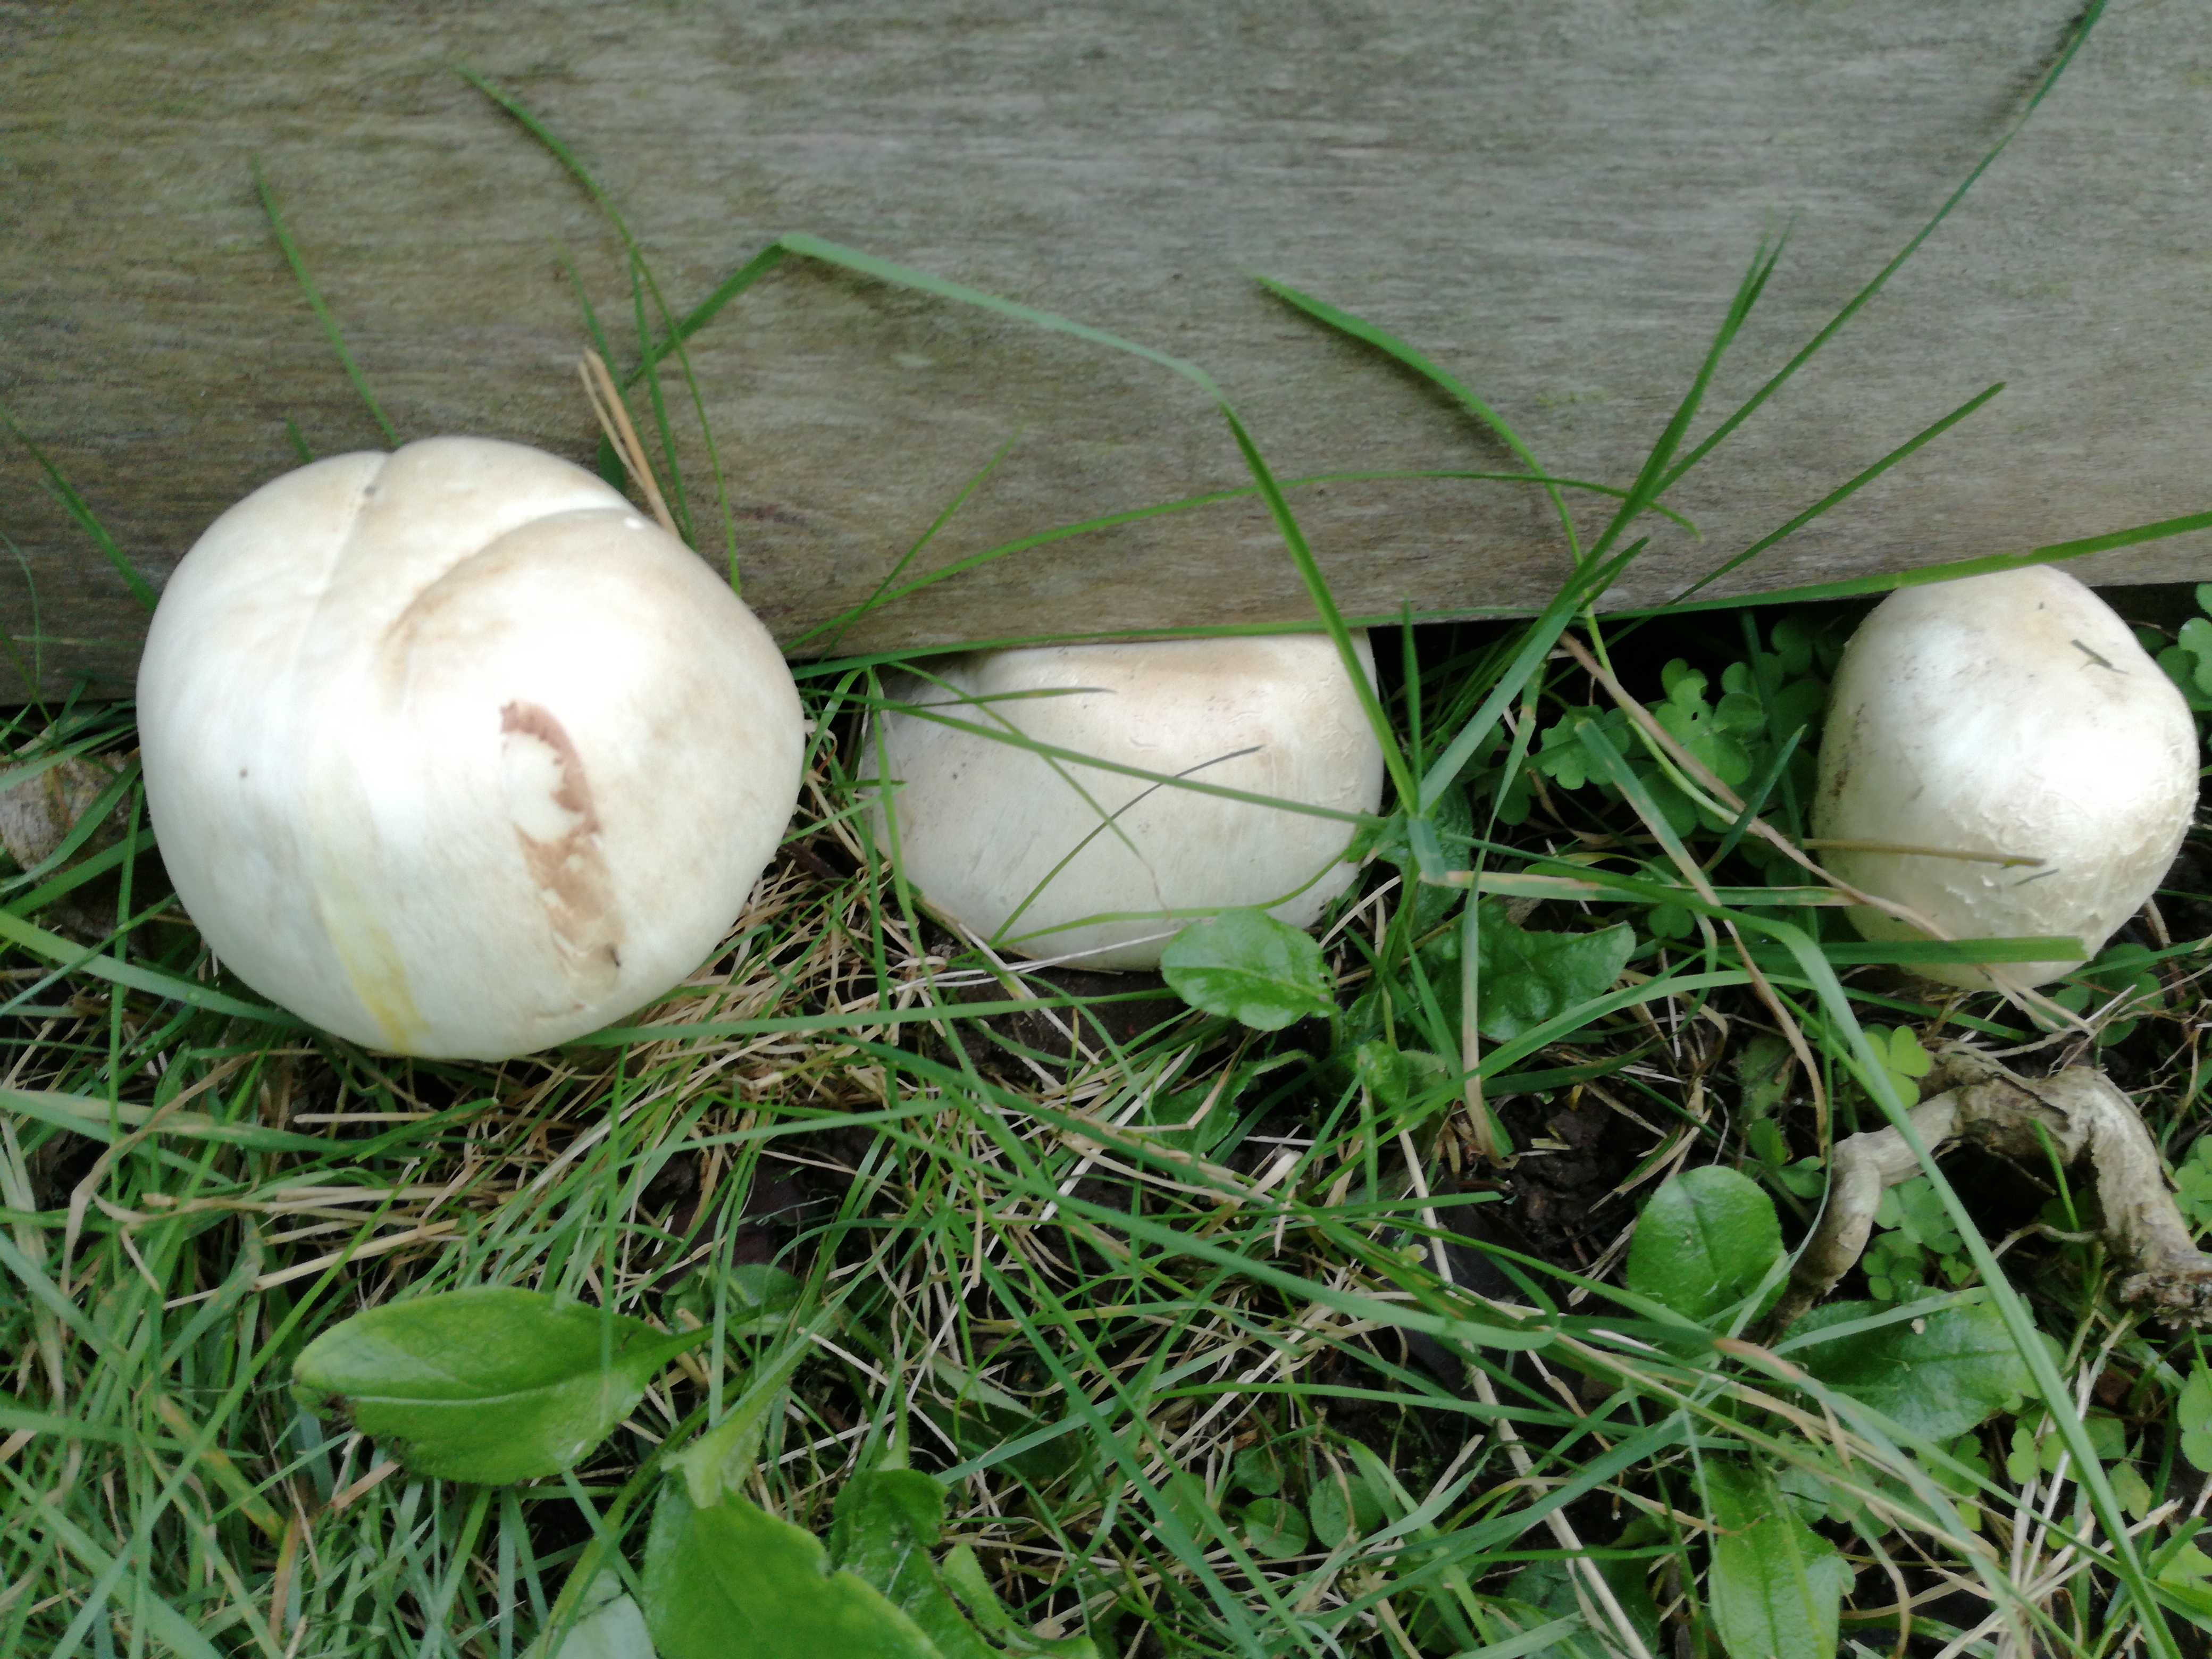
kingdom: Fungi
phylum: Basidiomycota
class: Agaricomycetes
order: Agaricales
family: Agaricaceae
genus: Agaricus
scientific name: Agaricus xanthodermus
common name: karbol-champignon
